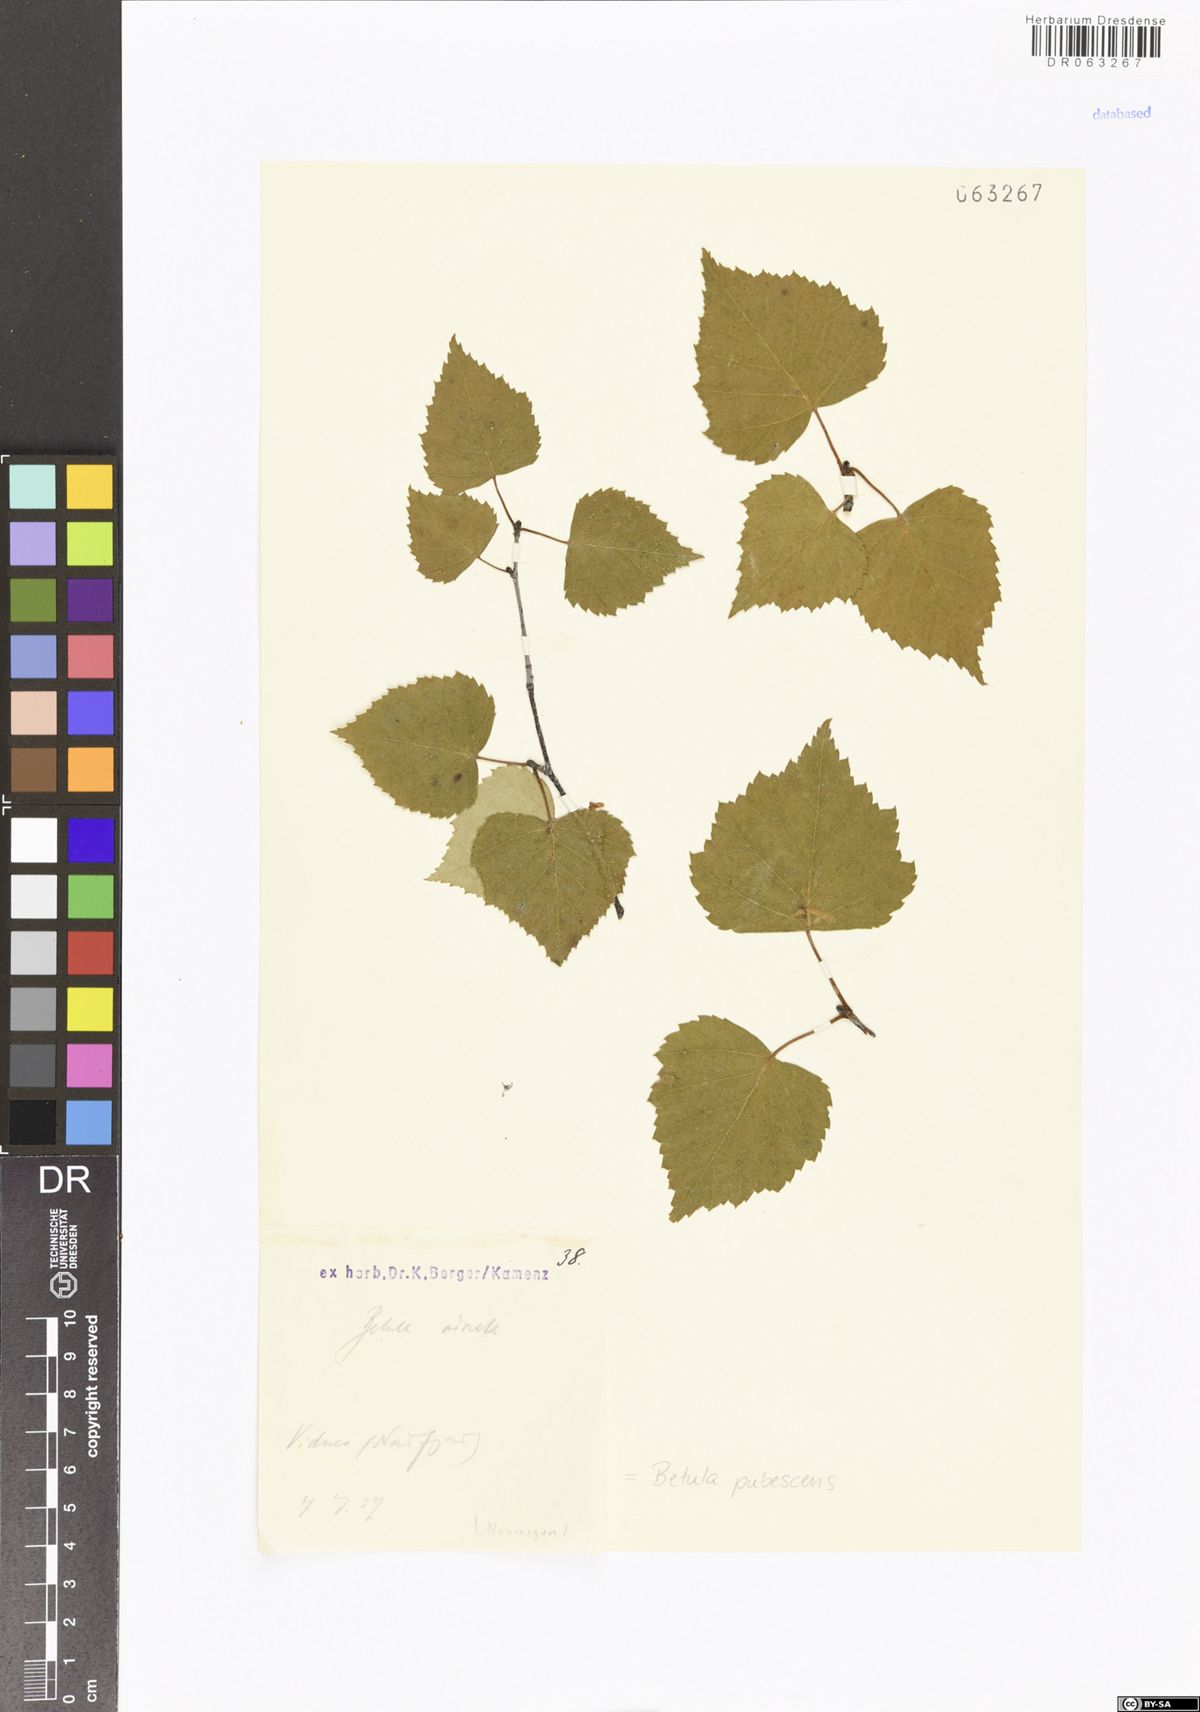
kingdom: Plantae
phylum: Tracheophyta
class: Magnoliopsida
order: Fagales
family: Betulaceae
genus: Betula
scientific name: Betula pubescens
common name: Downy birch
